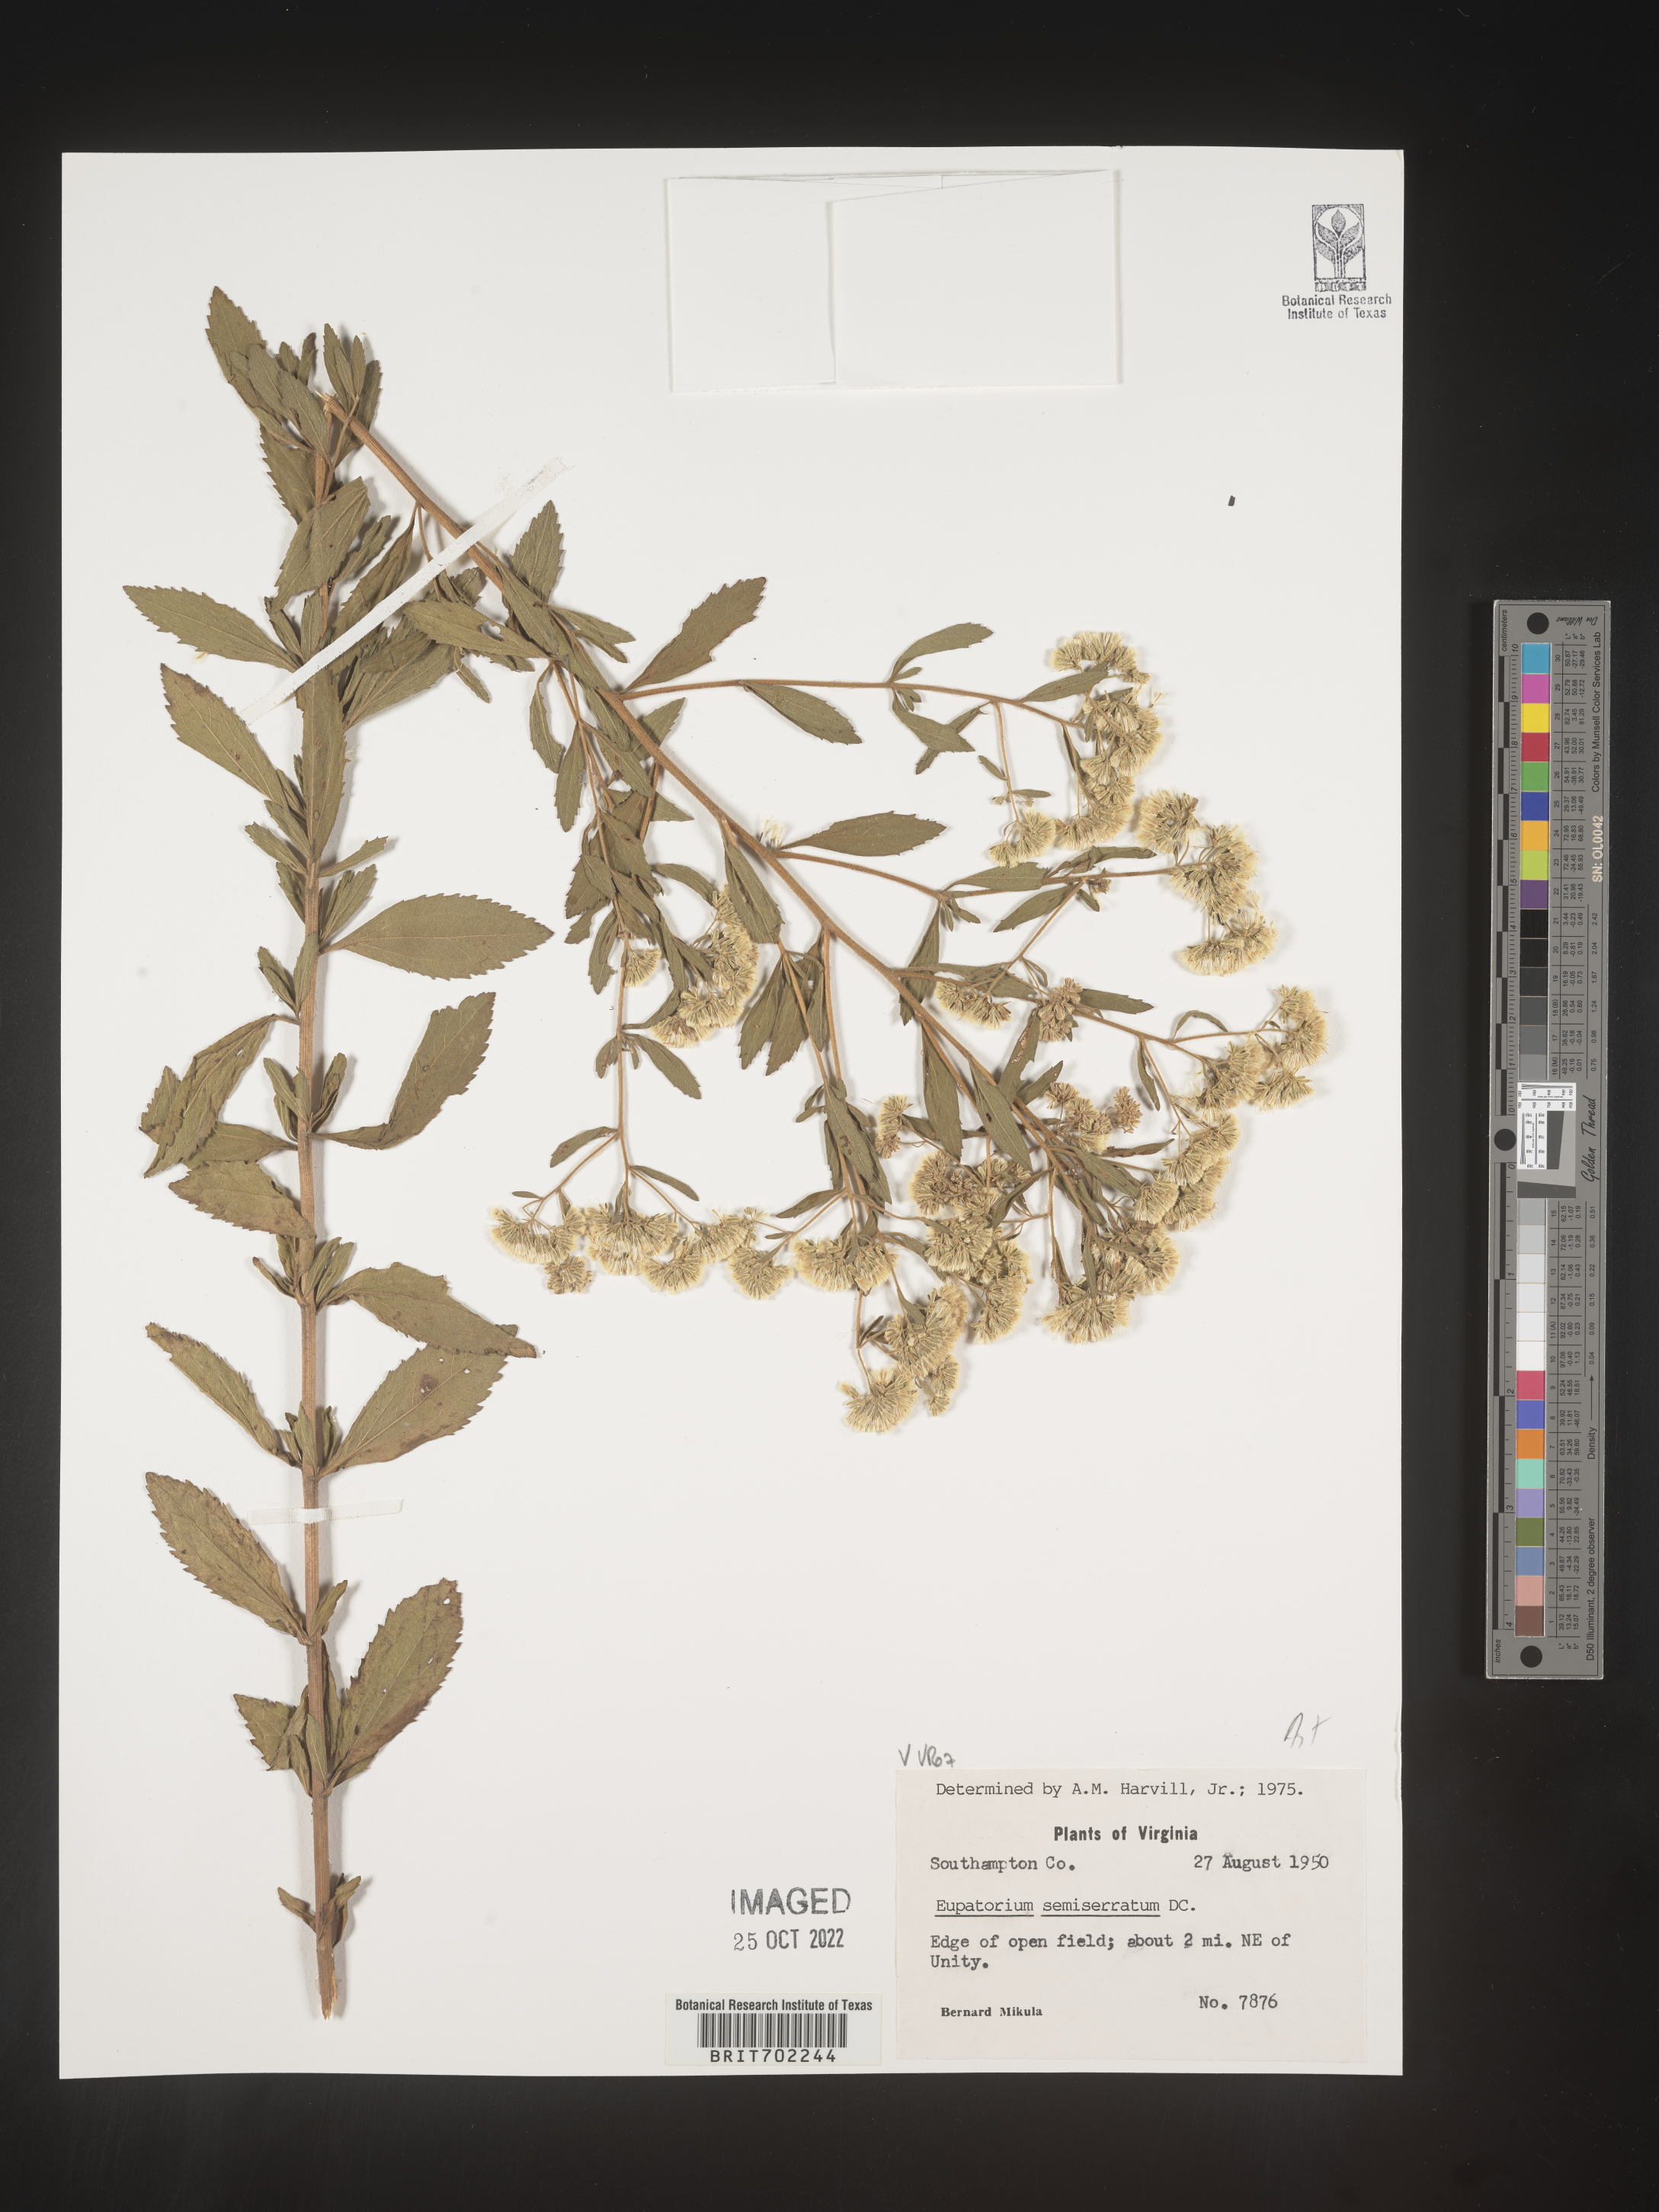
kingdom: Plantae
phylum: Tracheophyta
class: Magnoliopsida
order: Asterales
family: Asteraceae
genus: Eupatorium
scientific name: Eupatorium semiserratum
